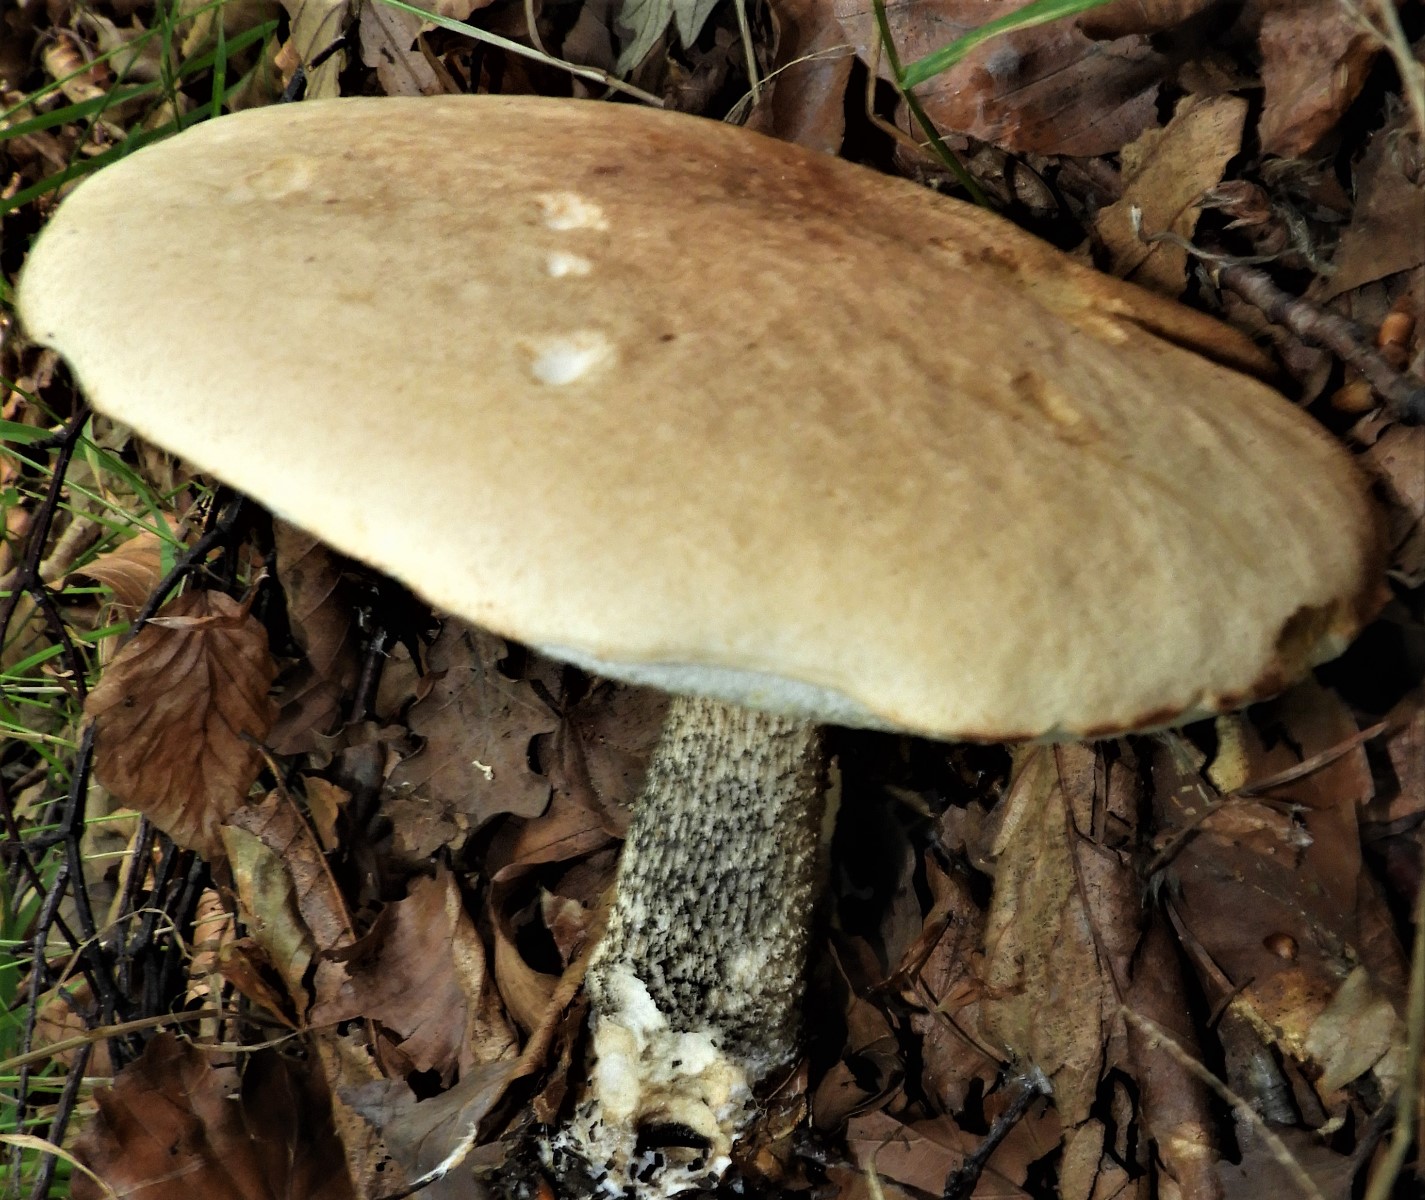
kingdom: Fungi
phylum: Basidiomycota
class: Agaricomycetes
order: Boletales
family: Boletaceae
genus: Leccinum
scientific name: Leccinum scabrum
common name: brun skælrørhat
